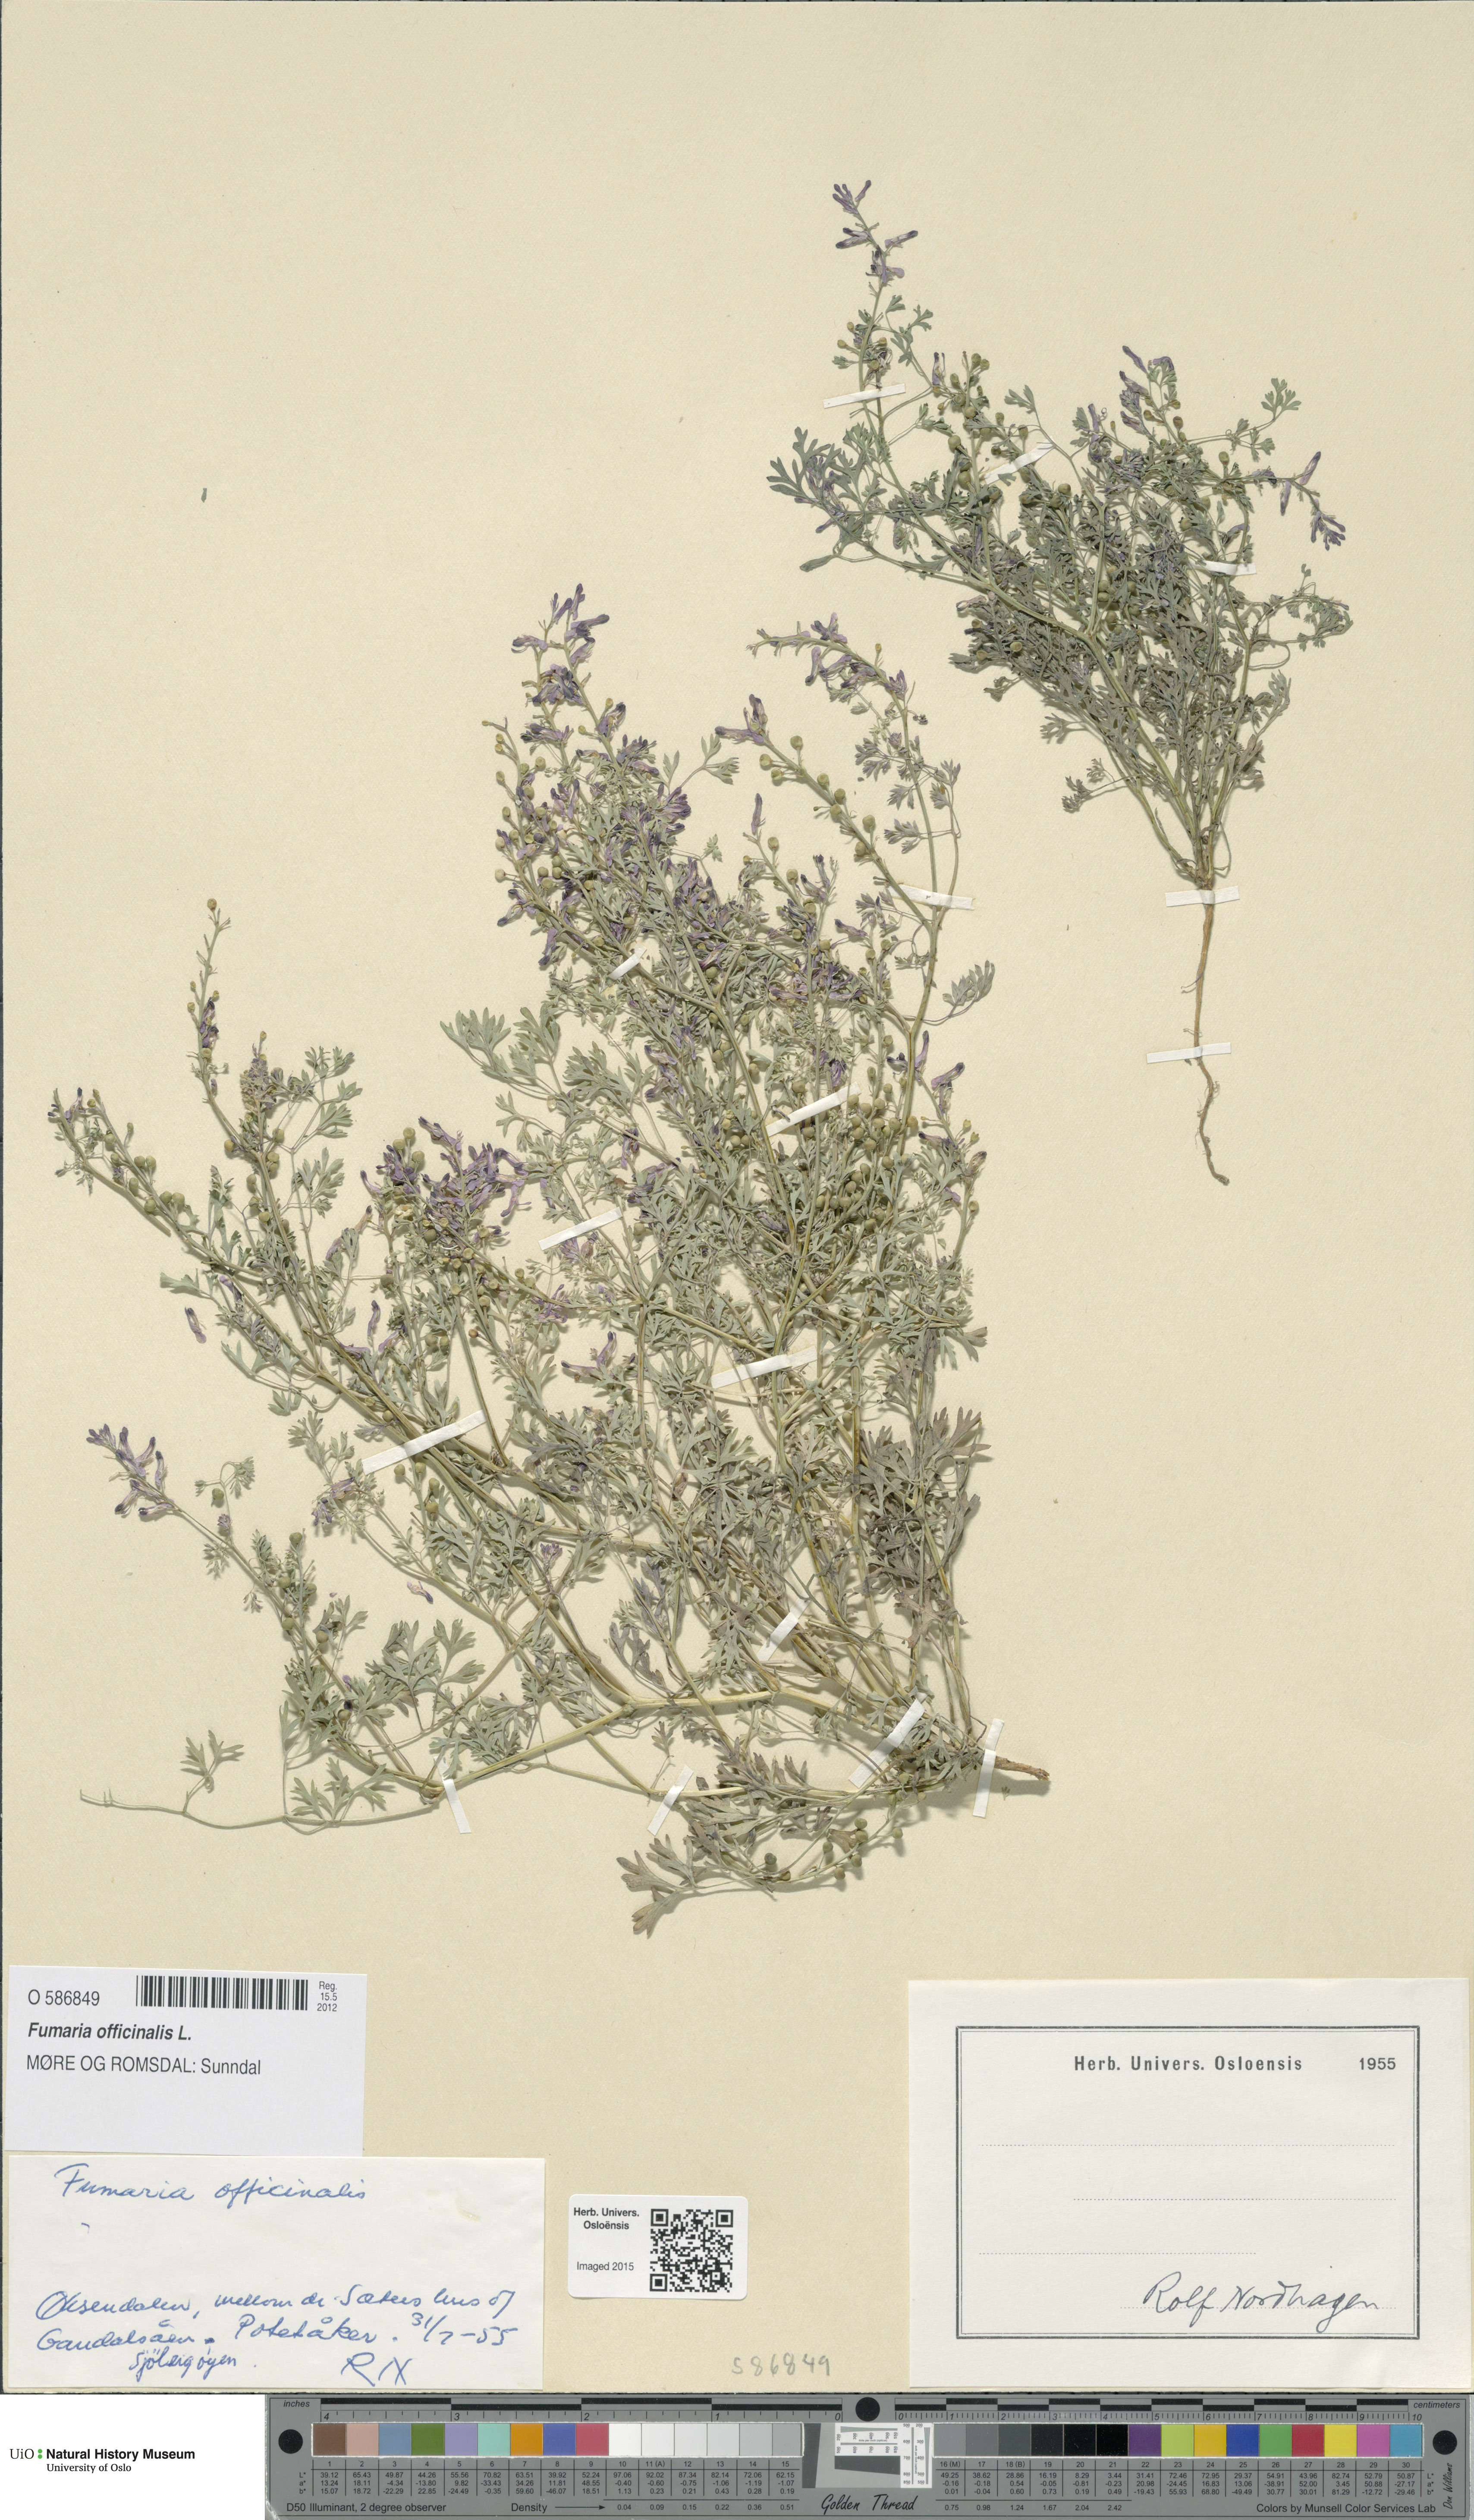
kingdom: Plantae
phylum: Tracheophyta
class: Magnoliopsida
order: Ranunculales
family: Papaveraceae
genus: Fumaria
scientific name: Fumaria officinalis
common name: Common fumitory
